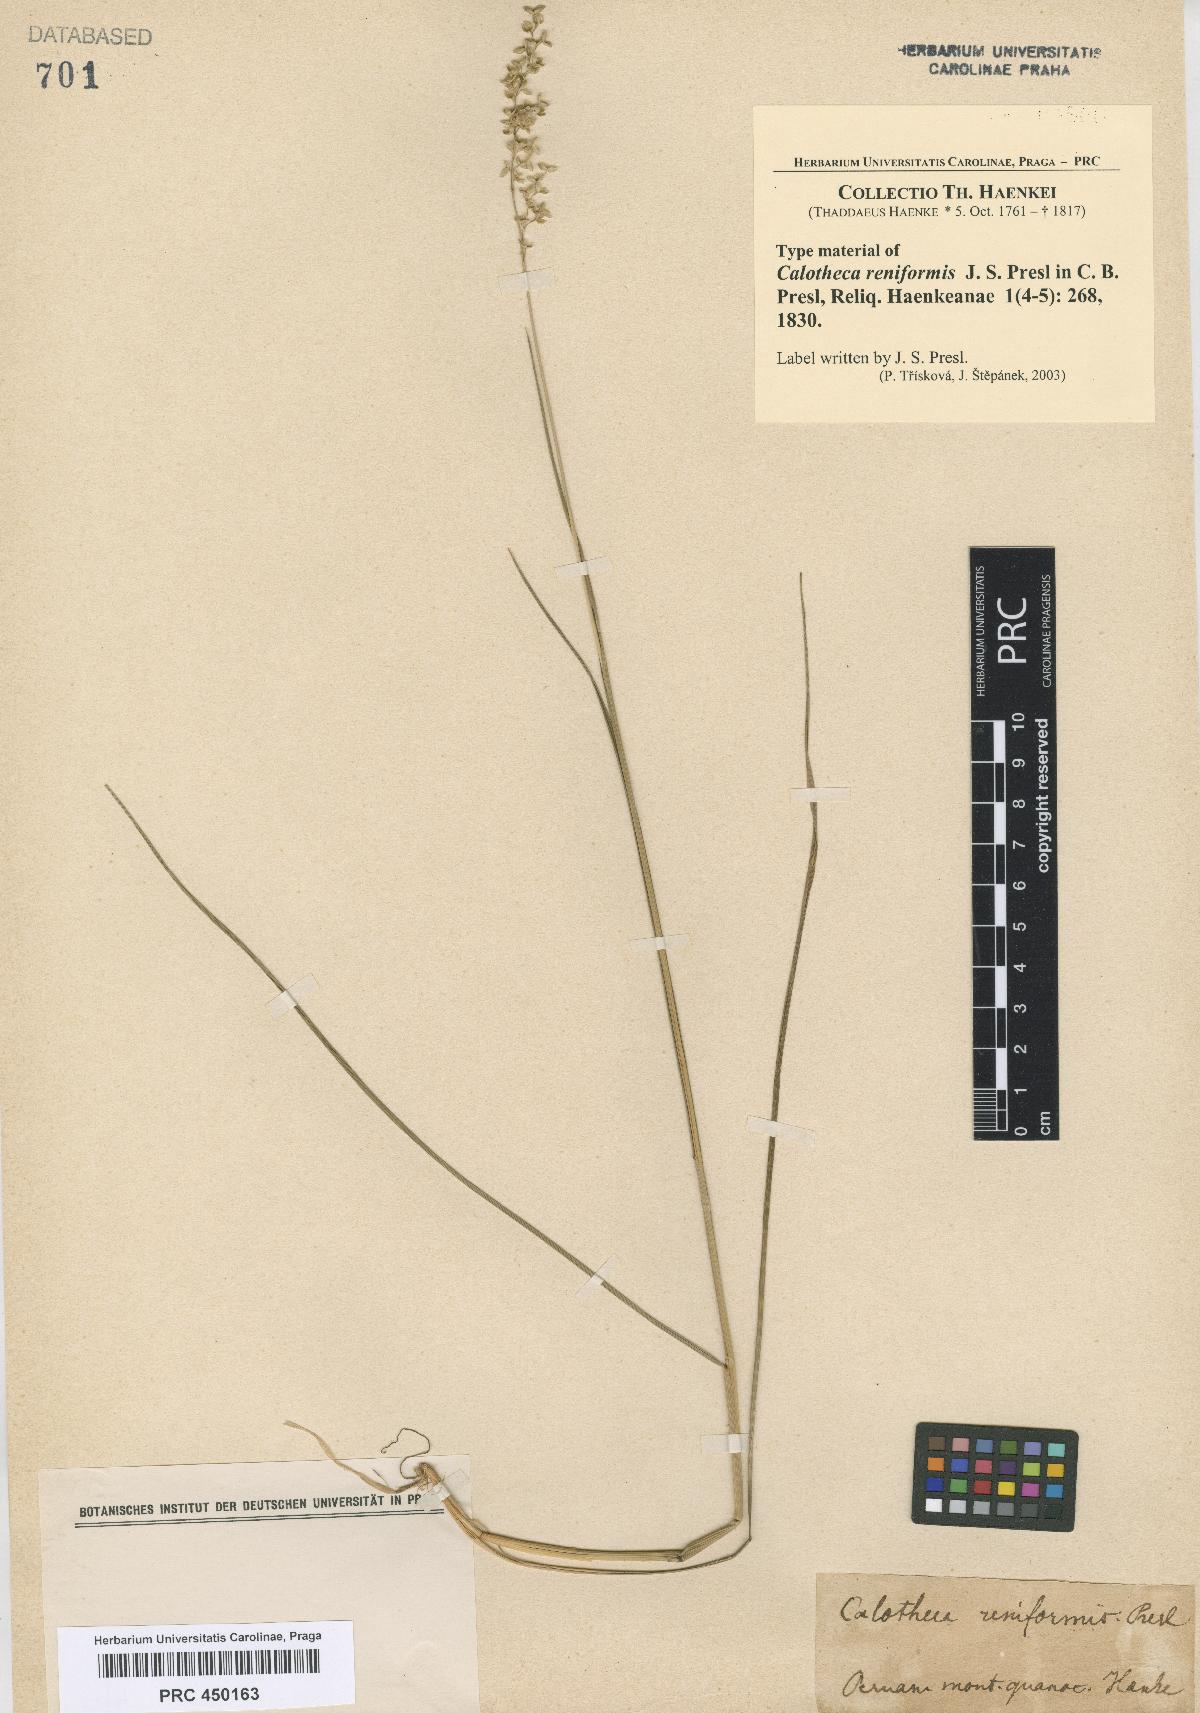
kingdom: Plantae
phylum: Tracheophyta
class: Liliopsida
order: Poales
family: Poaceae
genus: Chascolytrum
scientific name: Chascolytrum subaristatum
